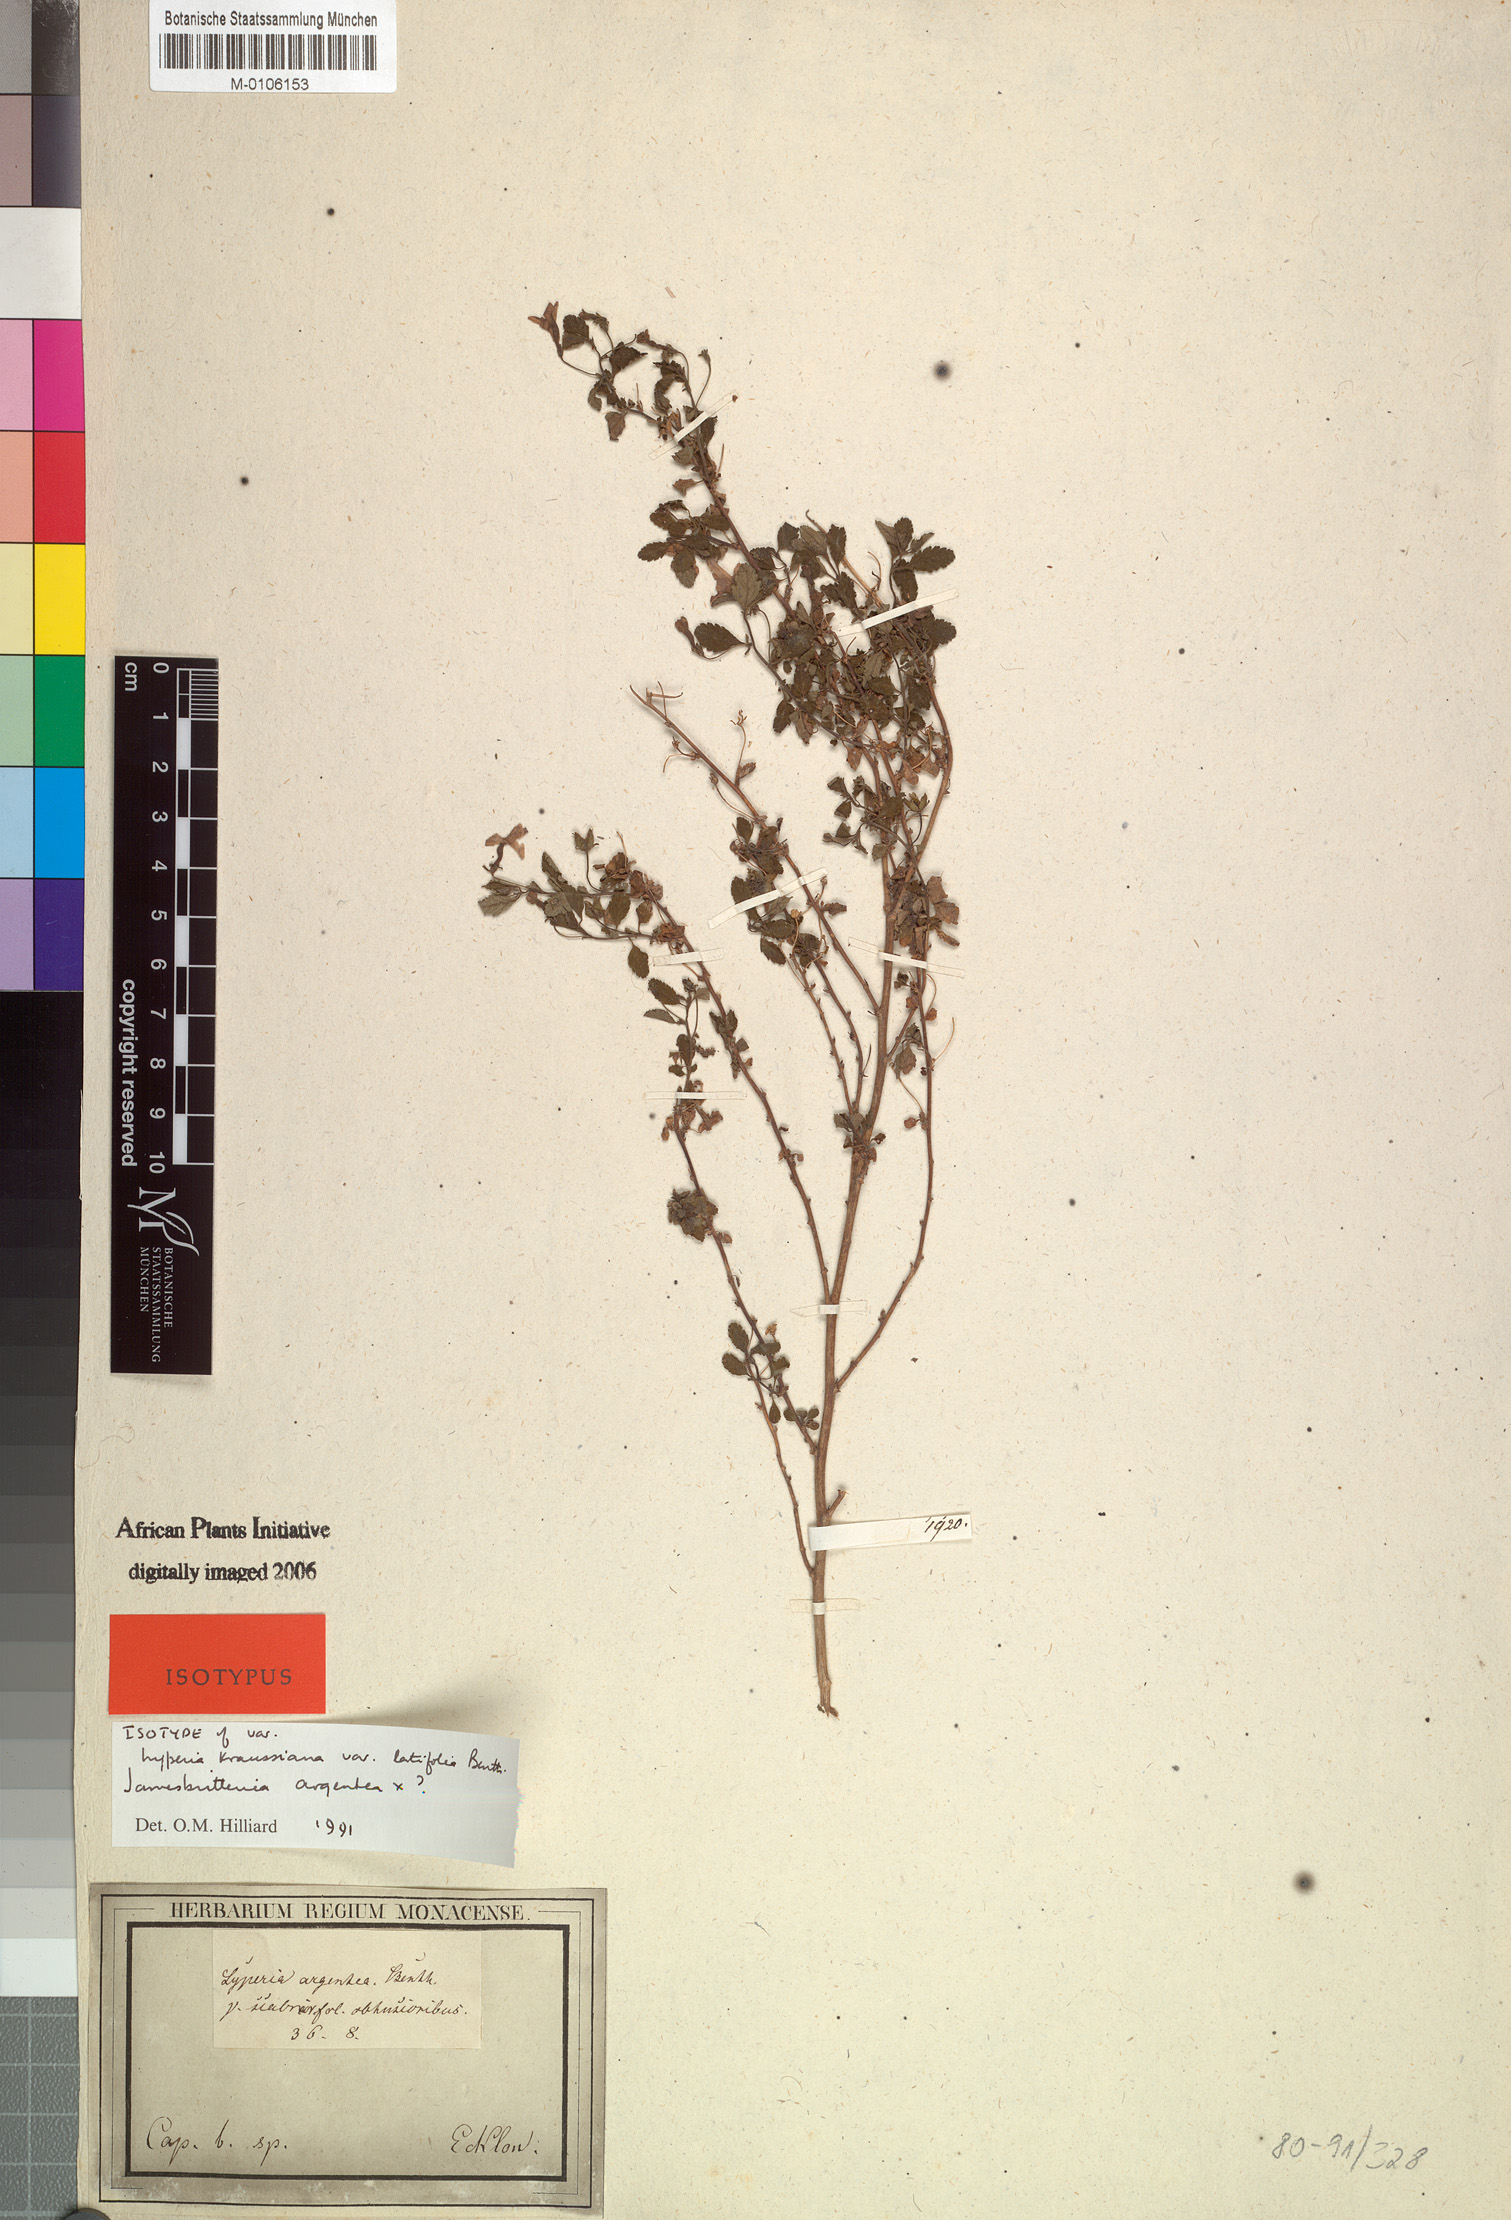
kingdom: Plantae
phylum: Tracheophyta
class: Magnoliopsida
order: Lamiales
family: Scrophulariaceae
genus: Jamesbrittenia
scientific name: Jamesbrittenia argentea
